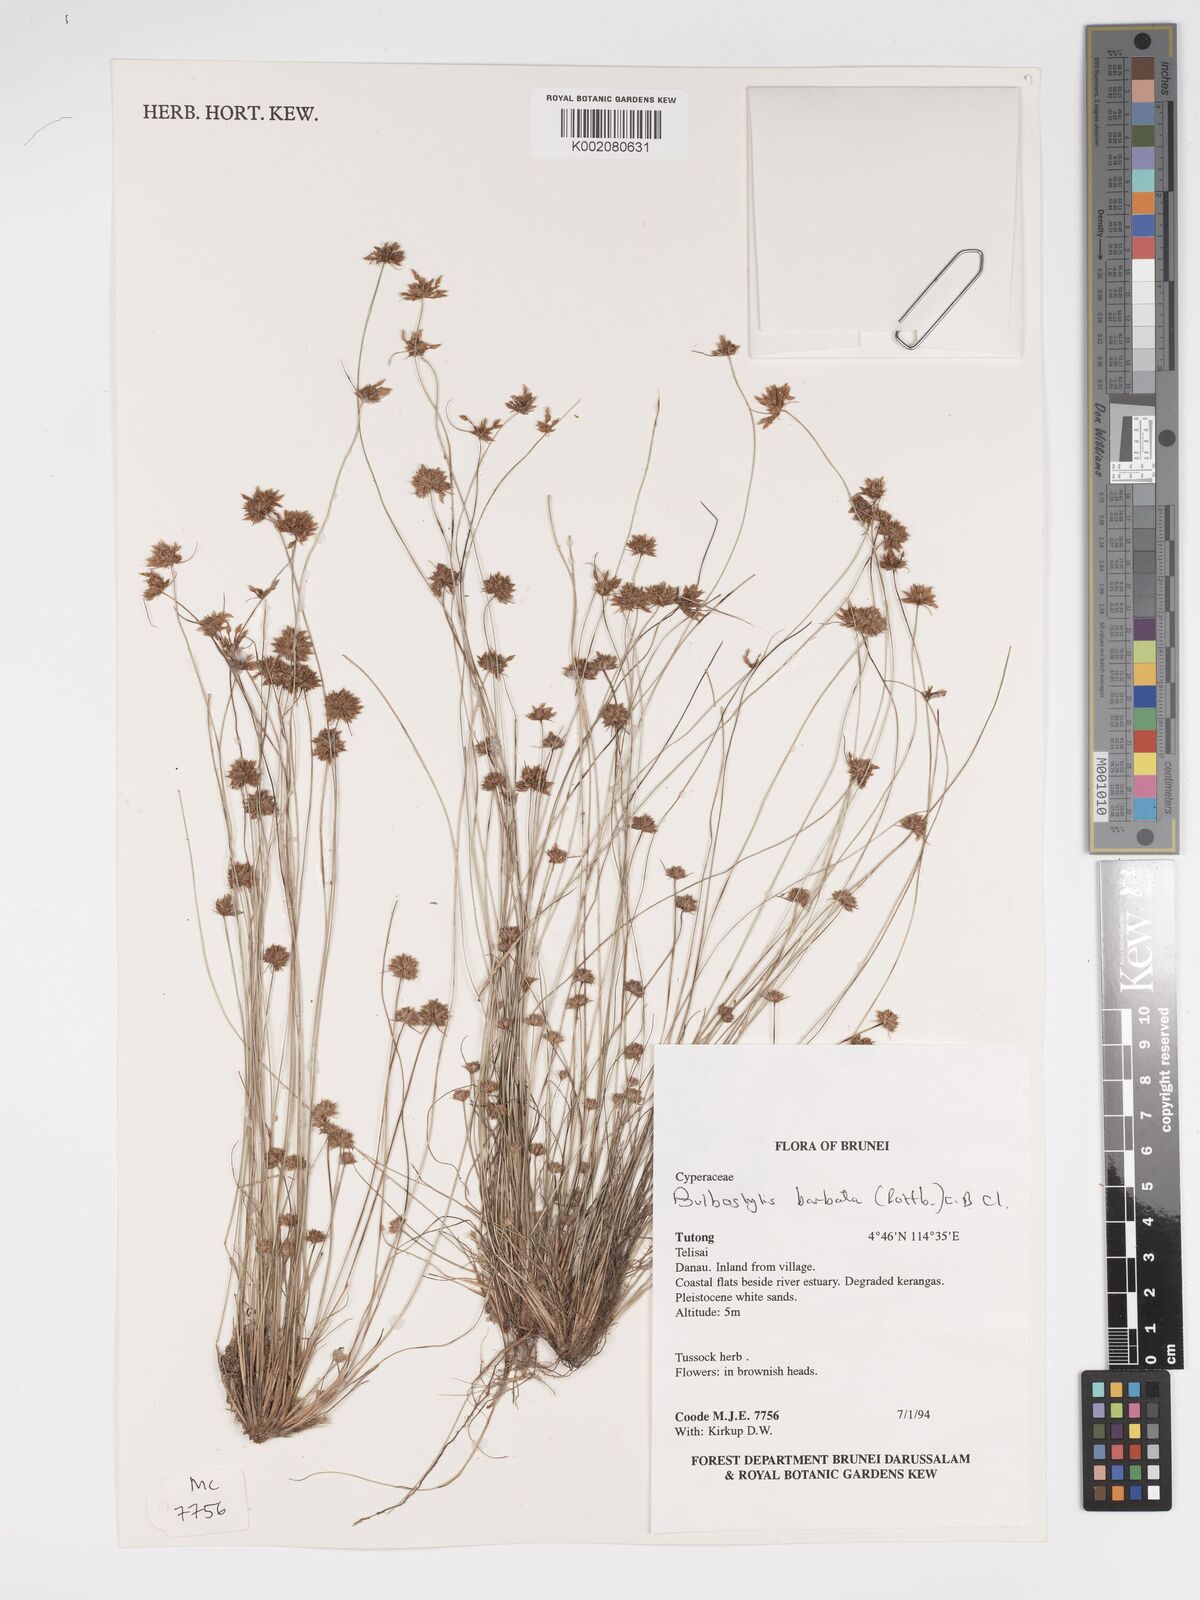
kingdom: Plantae
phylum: Tracheophyta
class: Liliopsida
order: Poales
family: Cyperaceae
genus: Bulbostylis
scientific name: Bulbostylis barbata
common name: Watergrass
